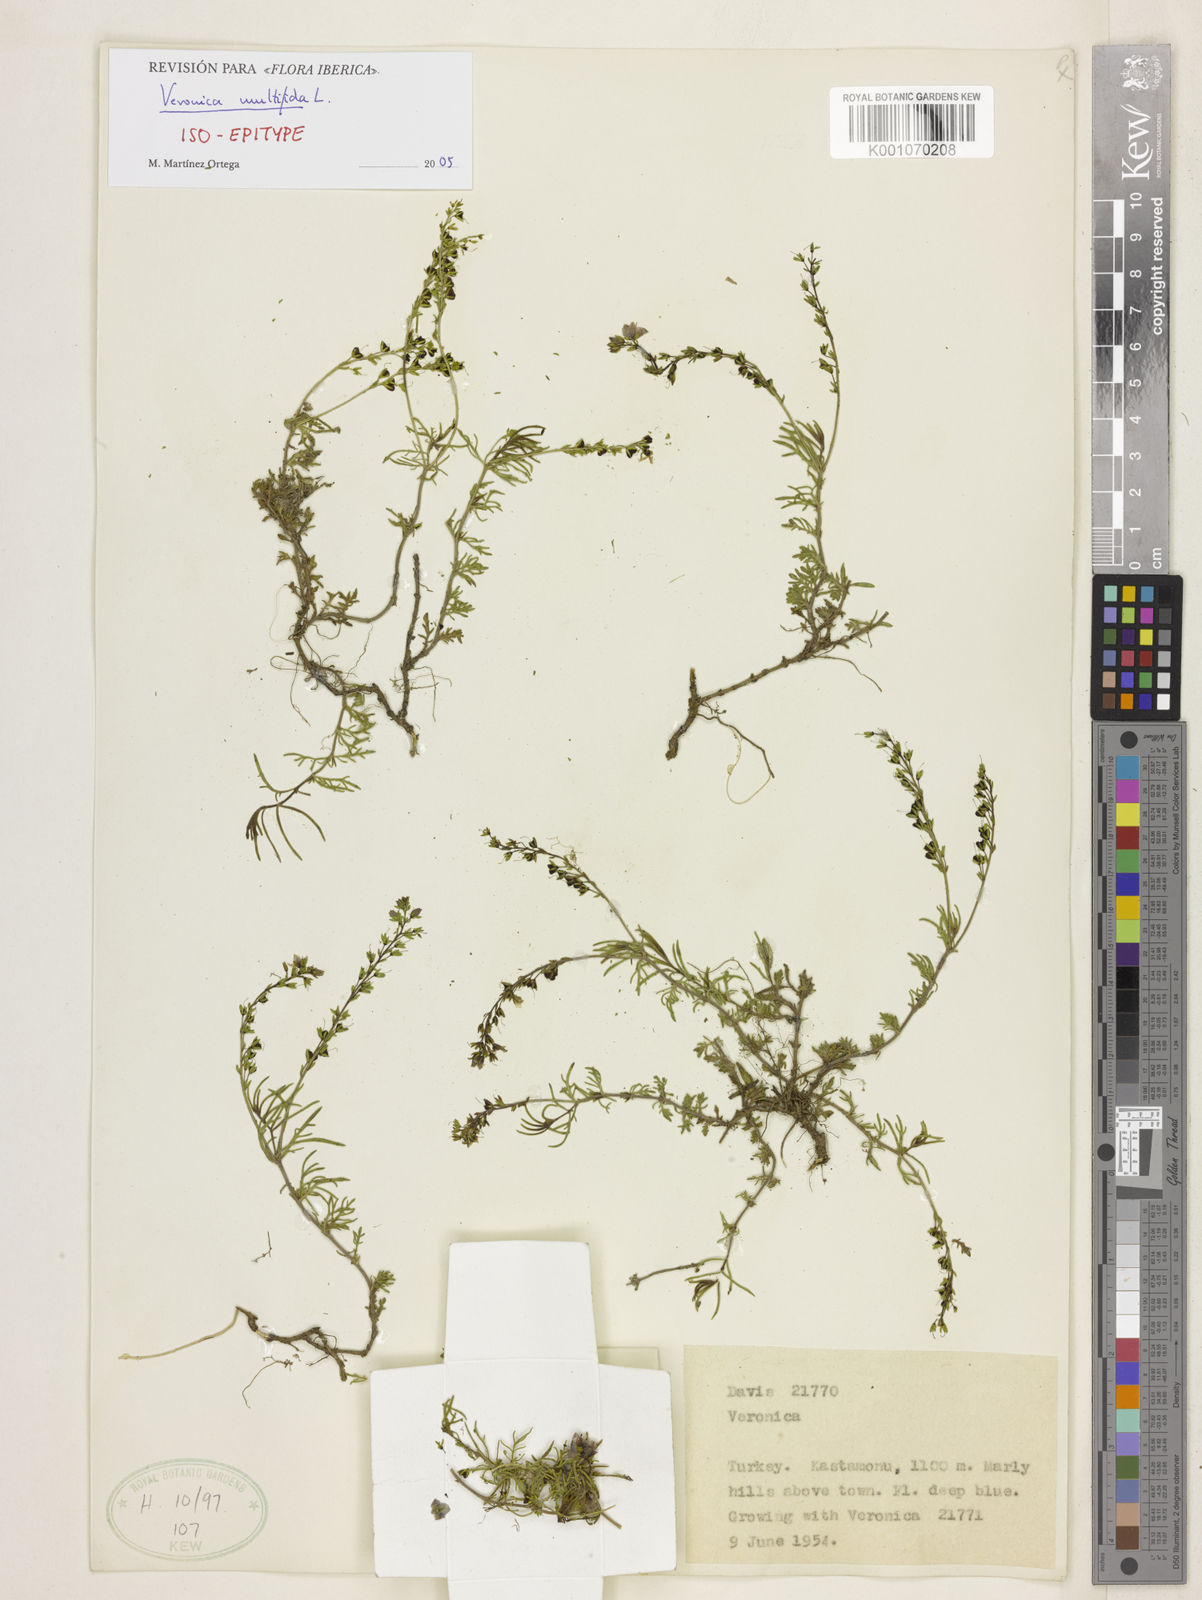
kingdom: Plantae
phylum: Tracheophyta
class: Magnoliopsida
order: Lamiales
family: Plantaginaceae
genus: Veronica
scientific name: Veronica multifida
